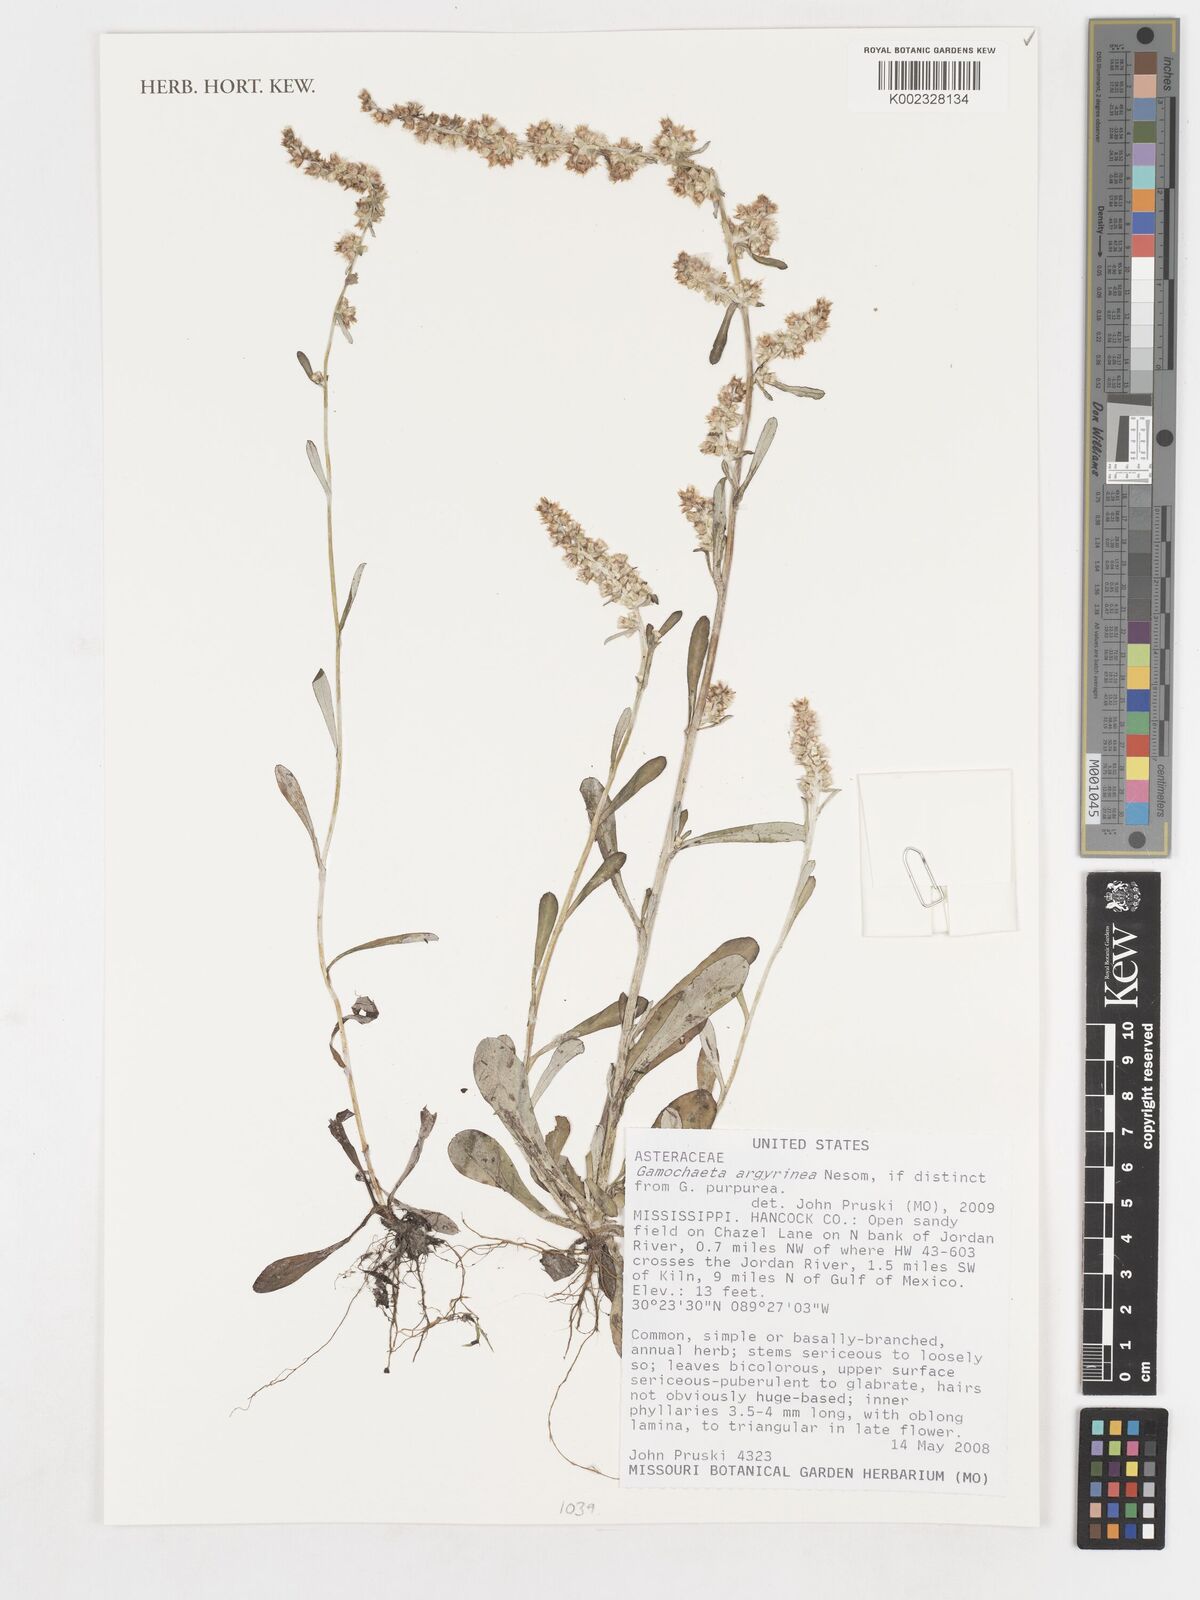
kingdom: Plantae
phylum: Tracheophyta
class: Magnoliopsida
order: Asterales
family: Asteraceae
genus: Gamochaeta
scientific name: Gamochaeta argyrinea
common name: Silvery cudweed
